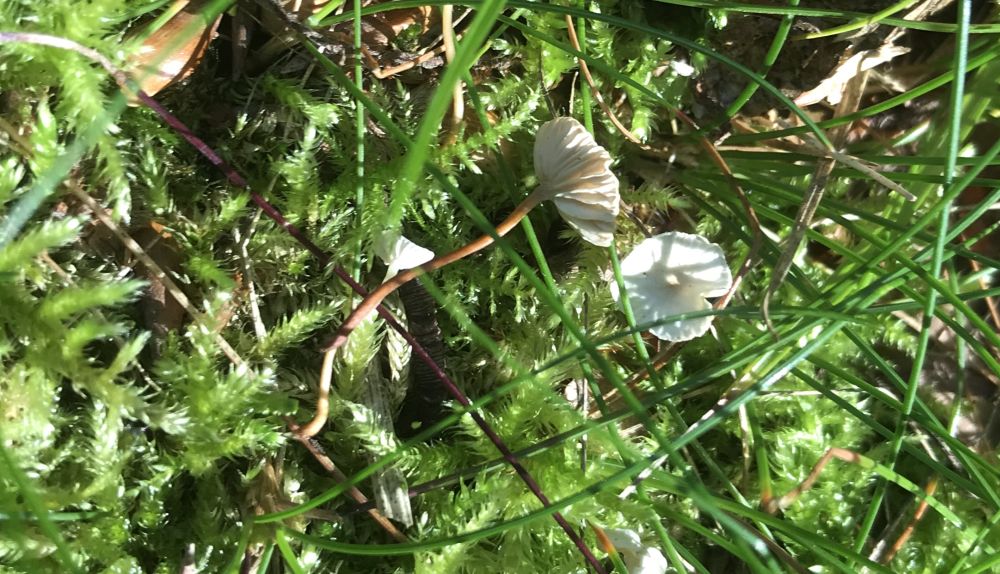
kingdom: Fungi
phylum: Basidiomycota
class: Agaricomycetes
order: Agaricales
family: Omphalotaceae
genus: Collybiopsis
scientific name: Collybiopsis vaillantii
